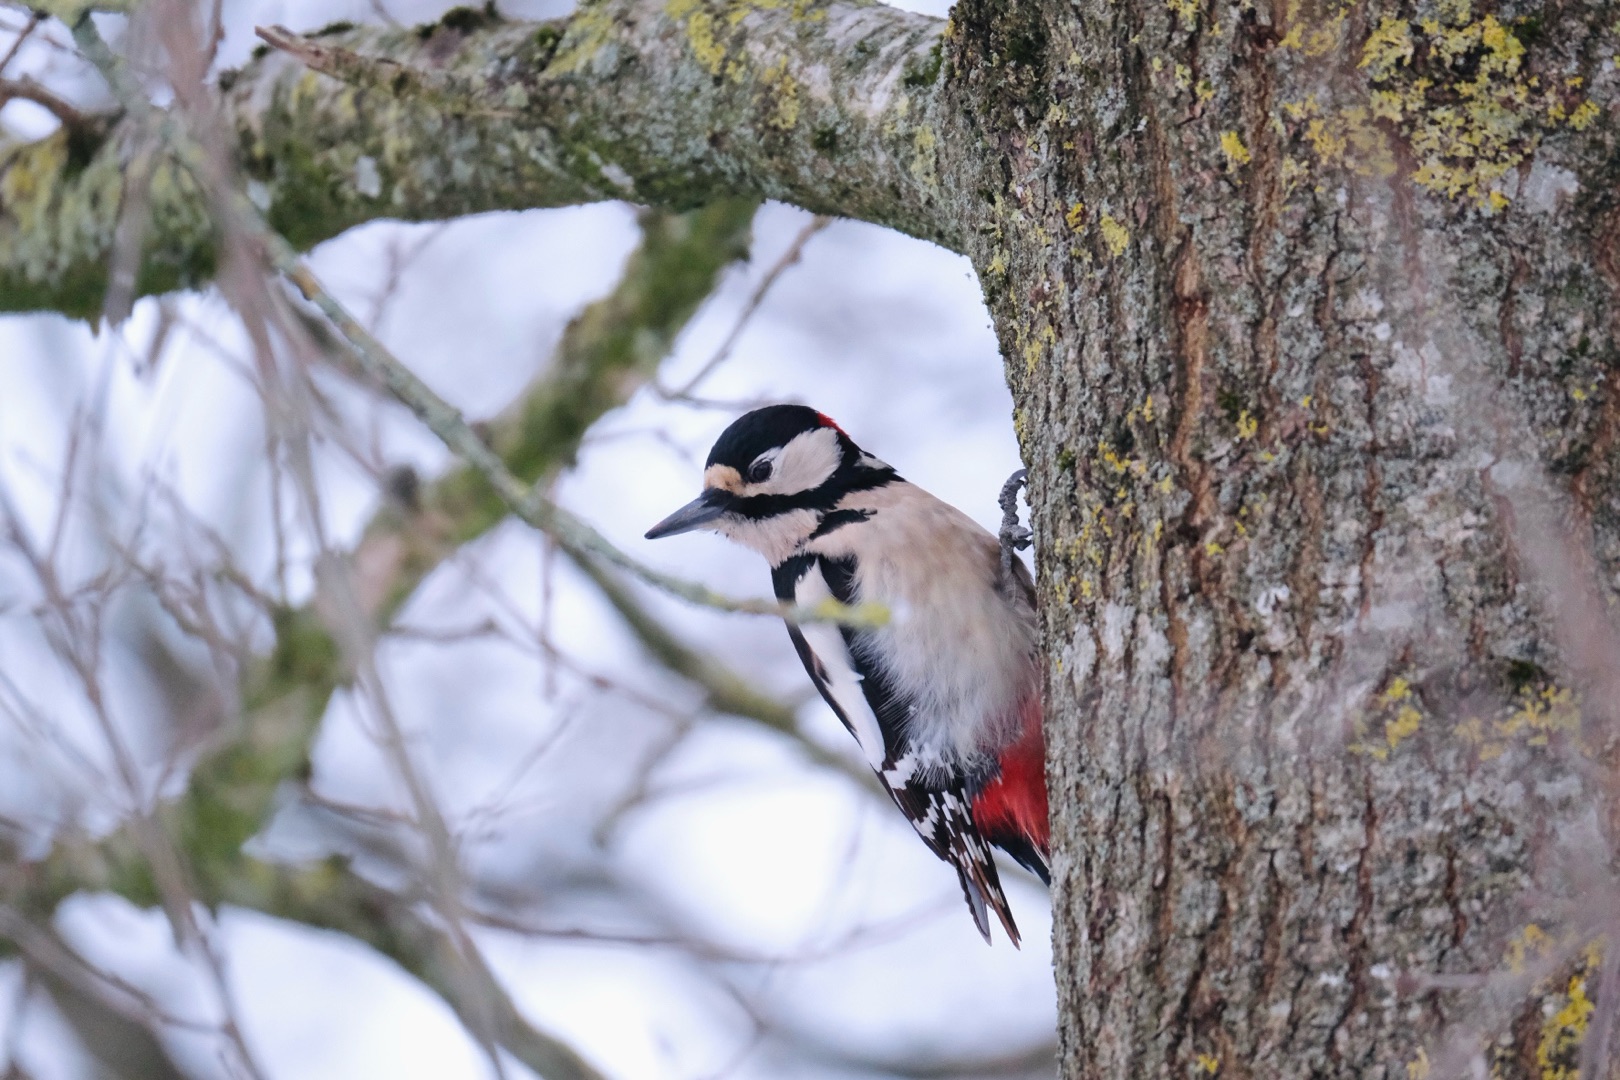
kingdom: Animalia
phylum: Chordata
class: Aves
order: Piciformes
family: Picidae
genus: Dendrocopos
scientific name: Dendrocopos major
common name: Stor flagspætte
